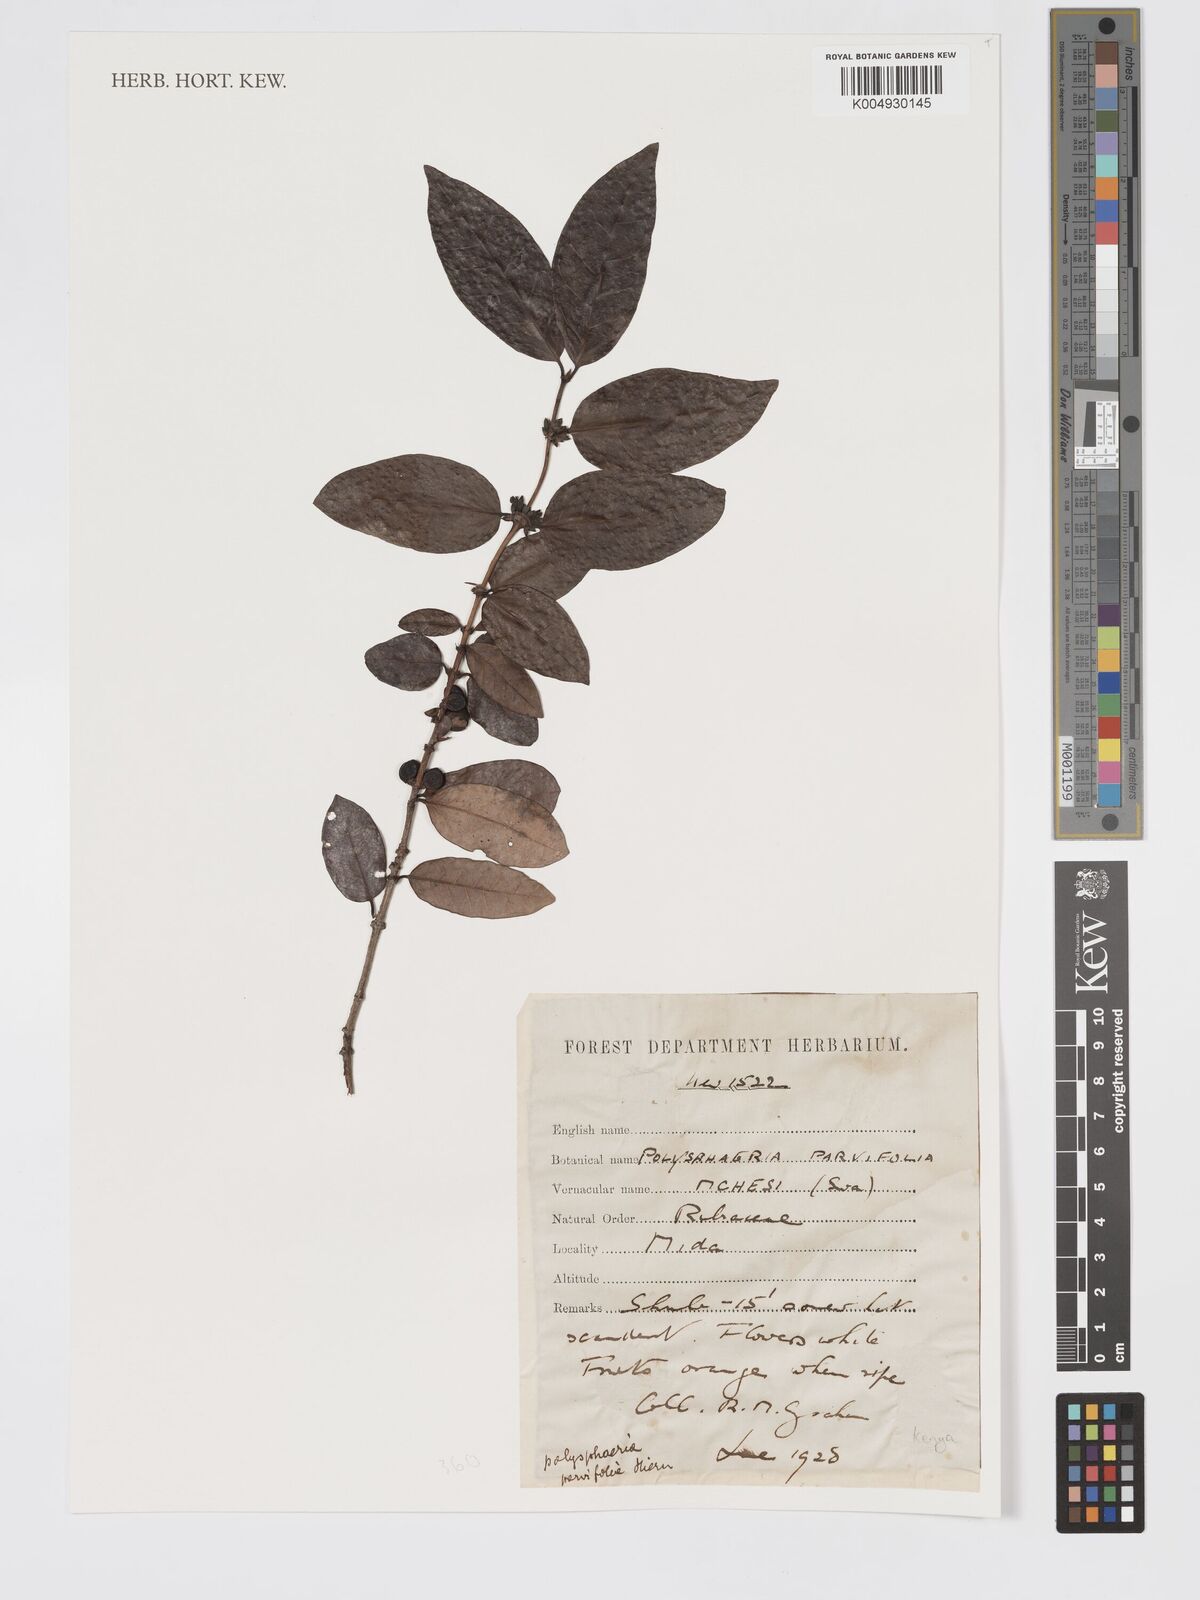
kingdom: Plantae
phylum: Tracheophyta
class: Magnoliopsida
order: Gentianales
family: Rubiaceae
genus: Polysphaeria
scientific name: Polysphaeria parvifolia
